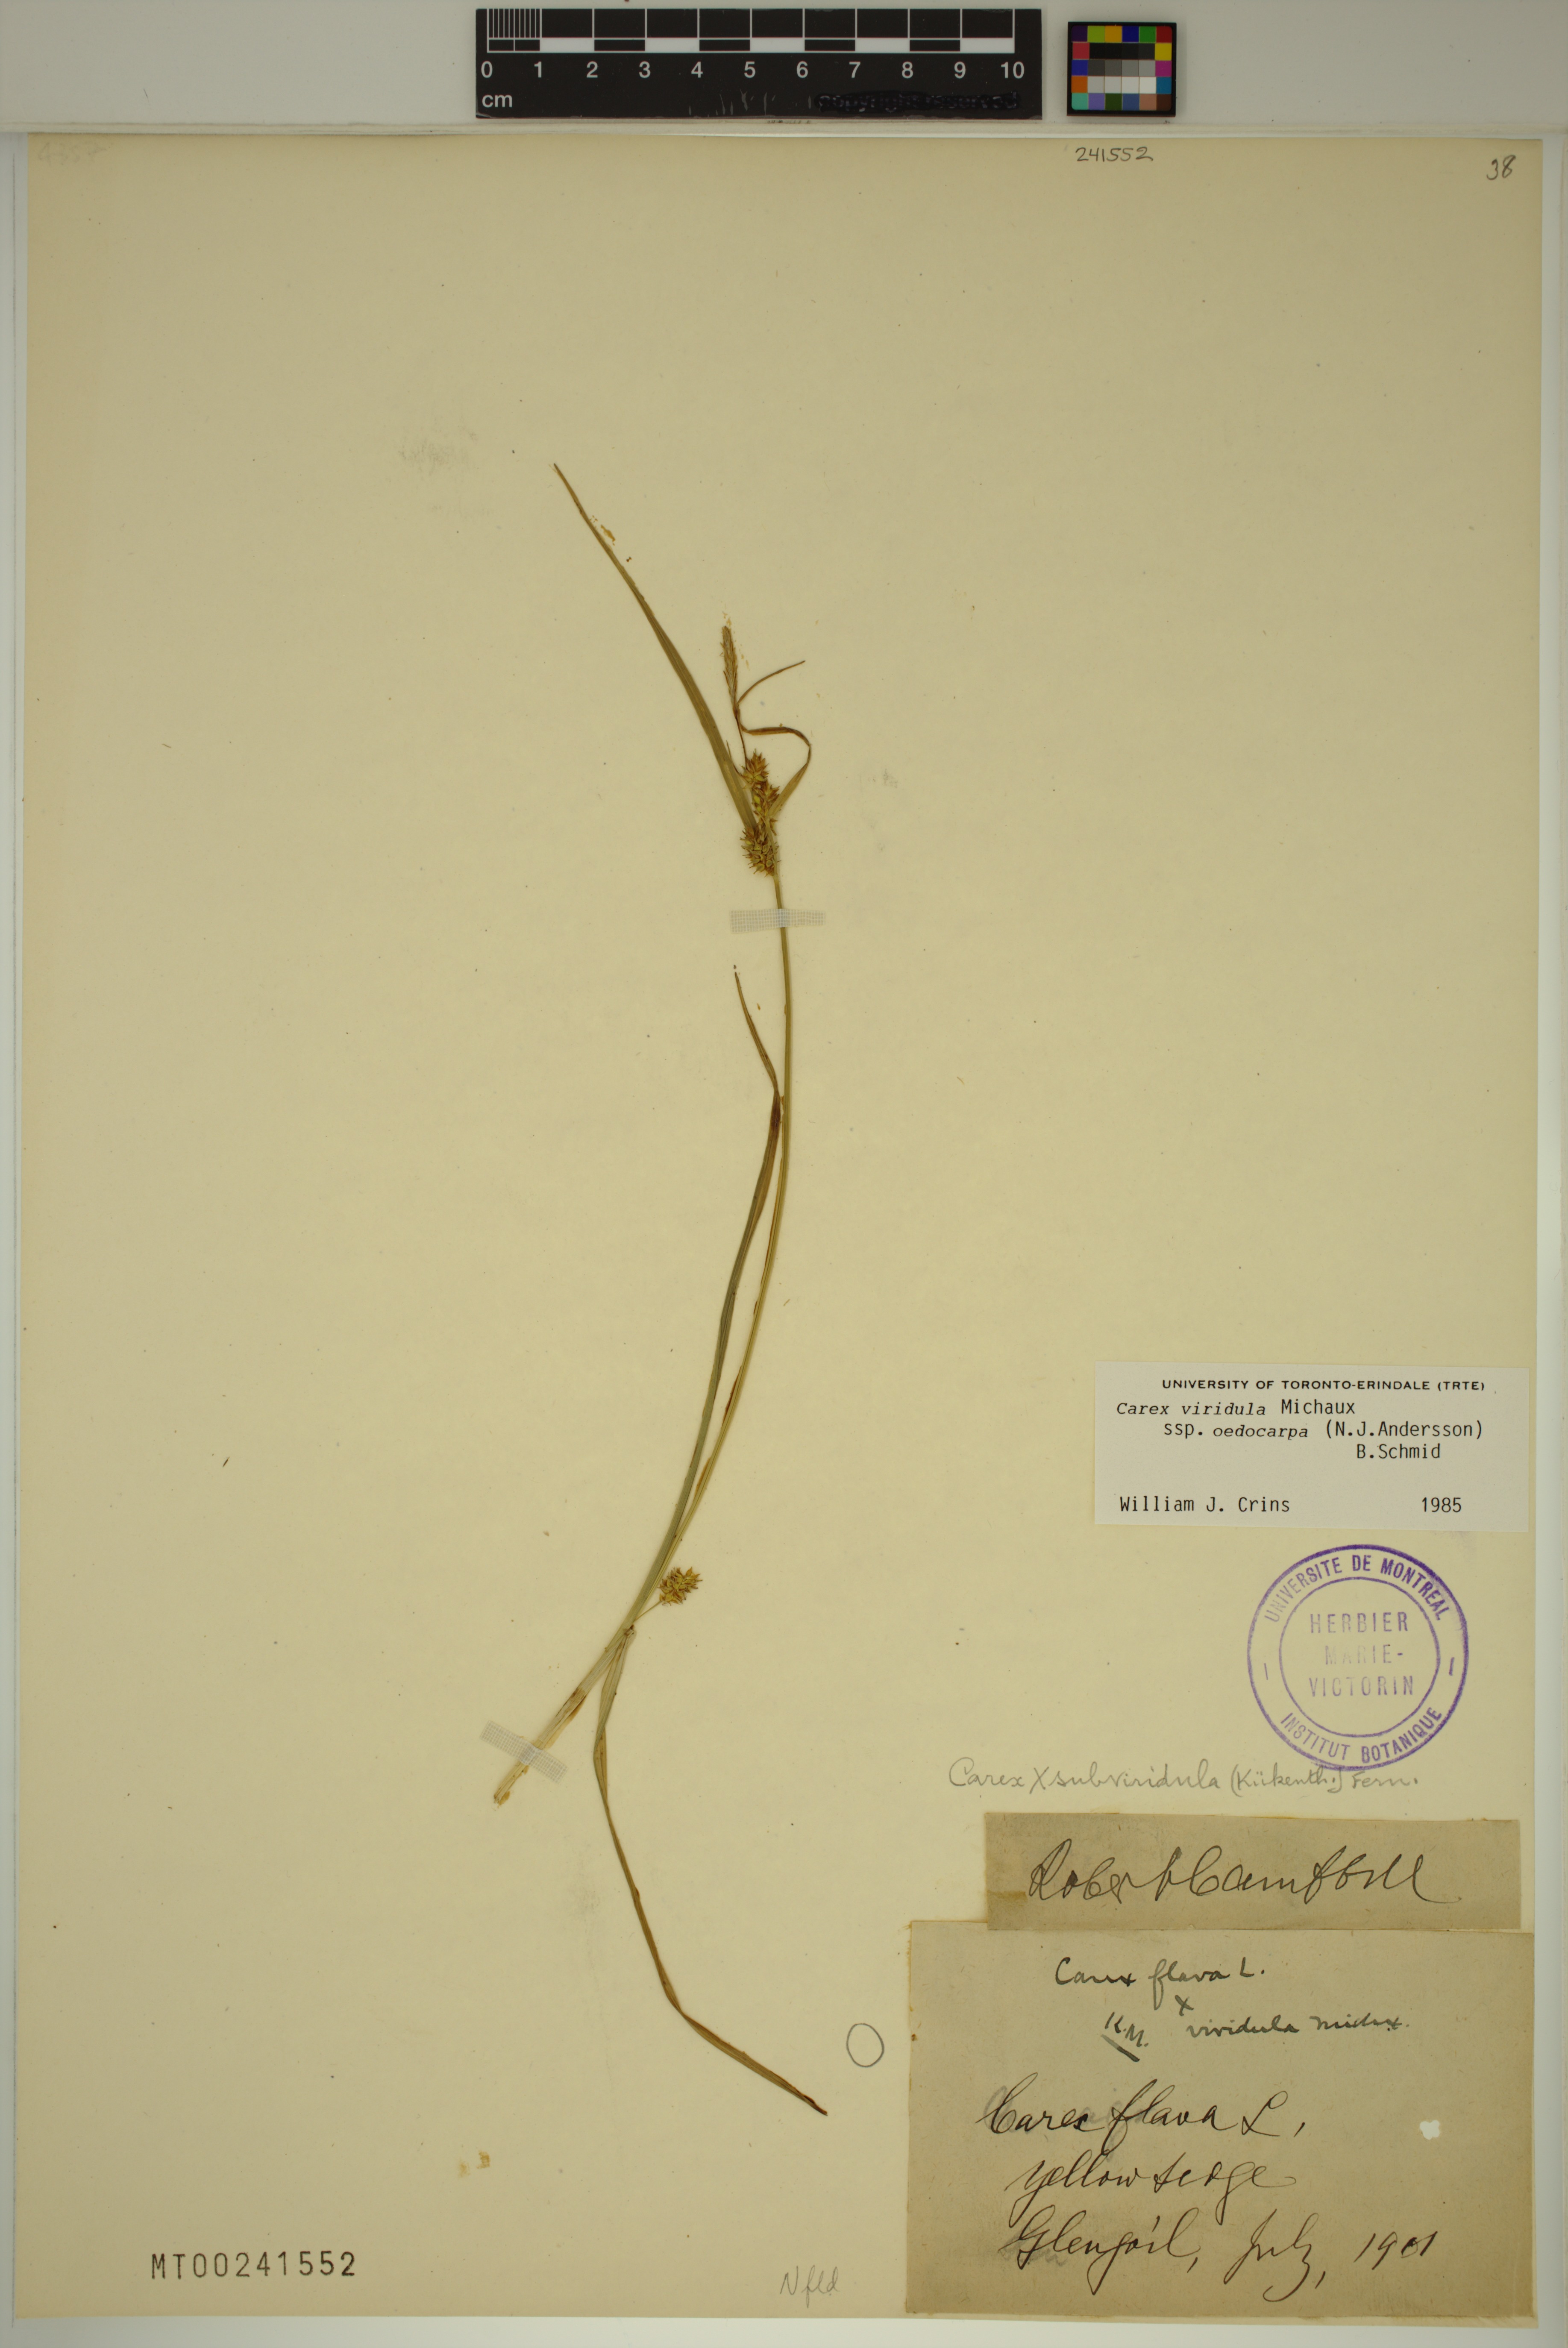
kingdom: Plantae
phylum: Tracheophyta
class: Liliopsida
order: Poales
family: Cyperaceae
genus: Carex
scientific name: Carex demissa
